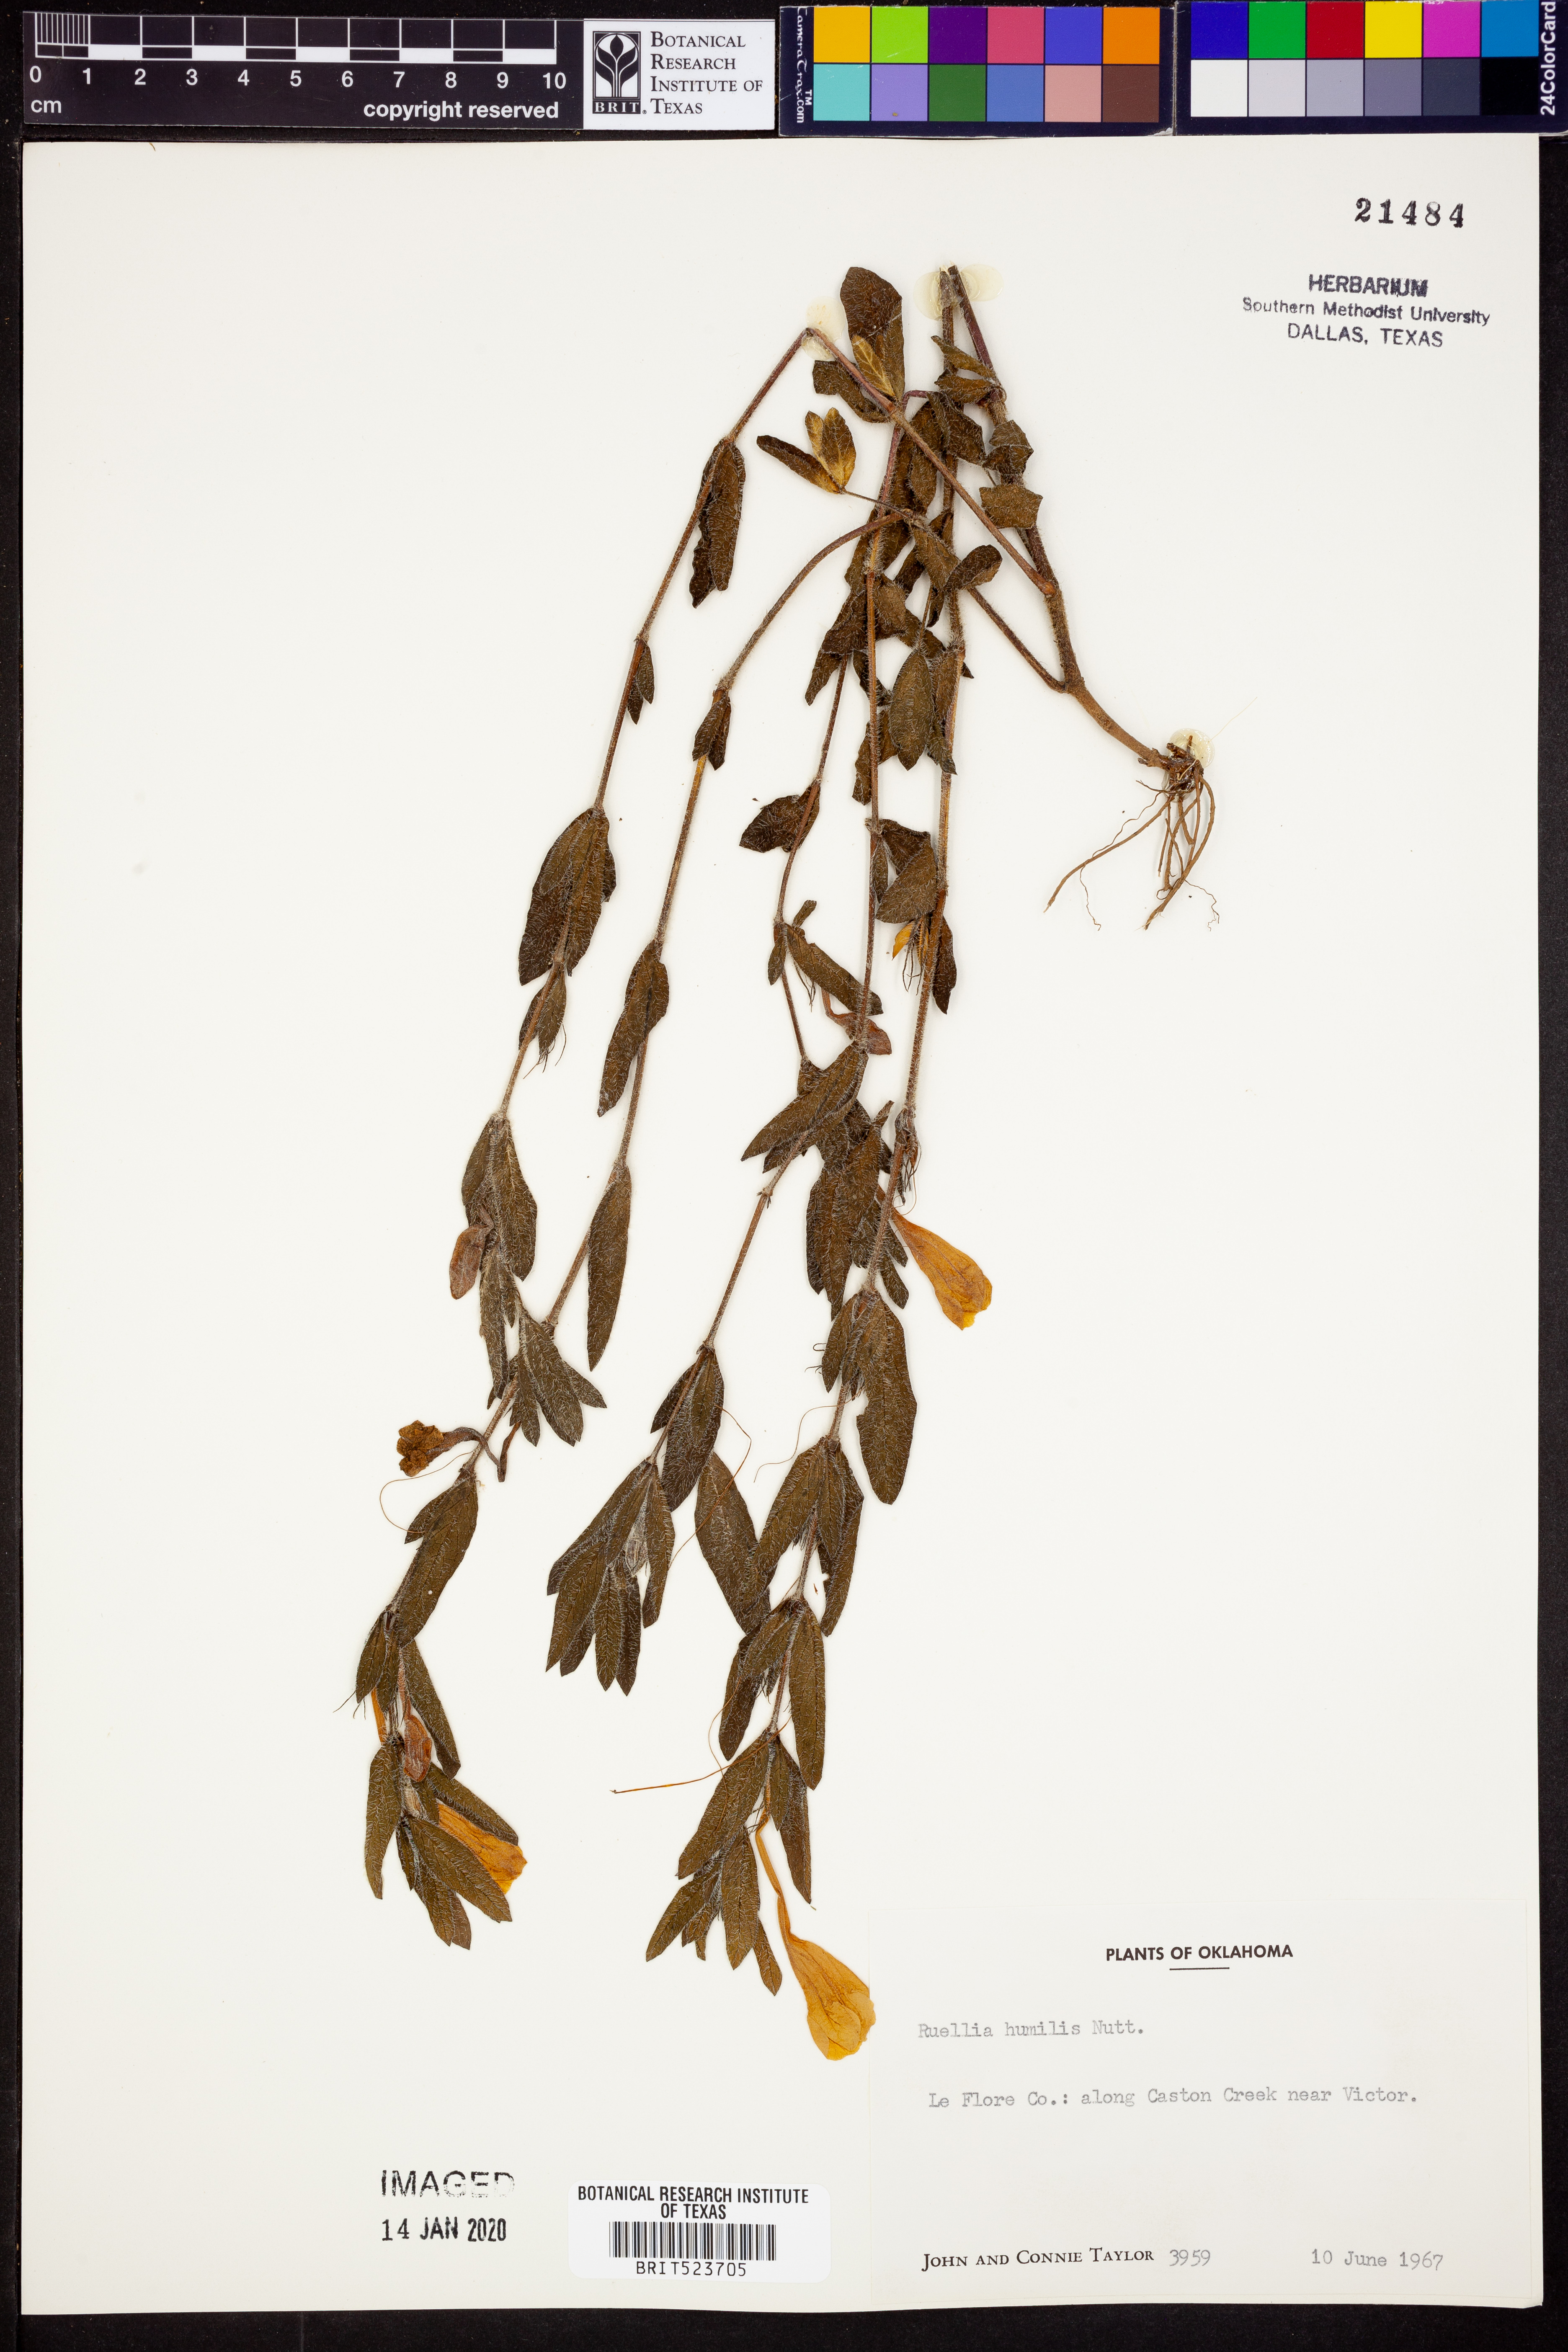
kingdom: Plantae
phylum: Tracheophyta
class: Magnoliopsida
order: Lamiales
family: Acanthaceae
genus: Ruellia
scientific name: Ruellia humilis
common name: Fringe-leaf ruellia
